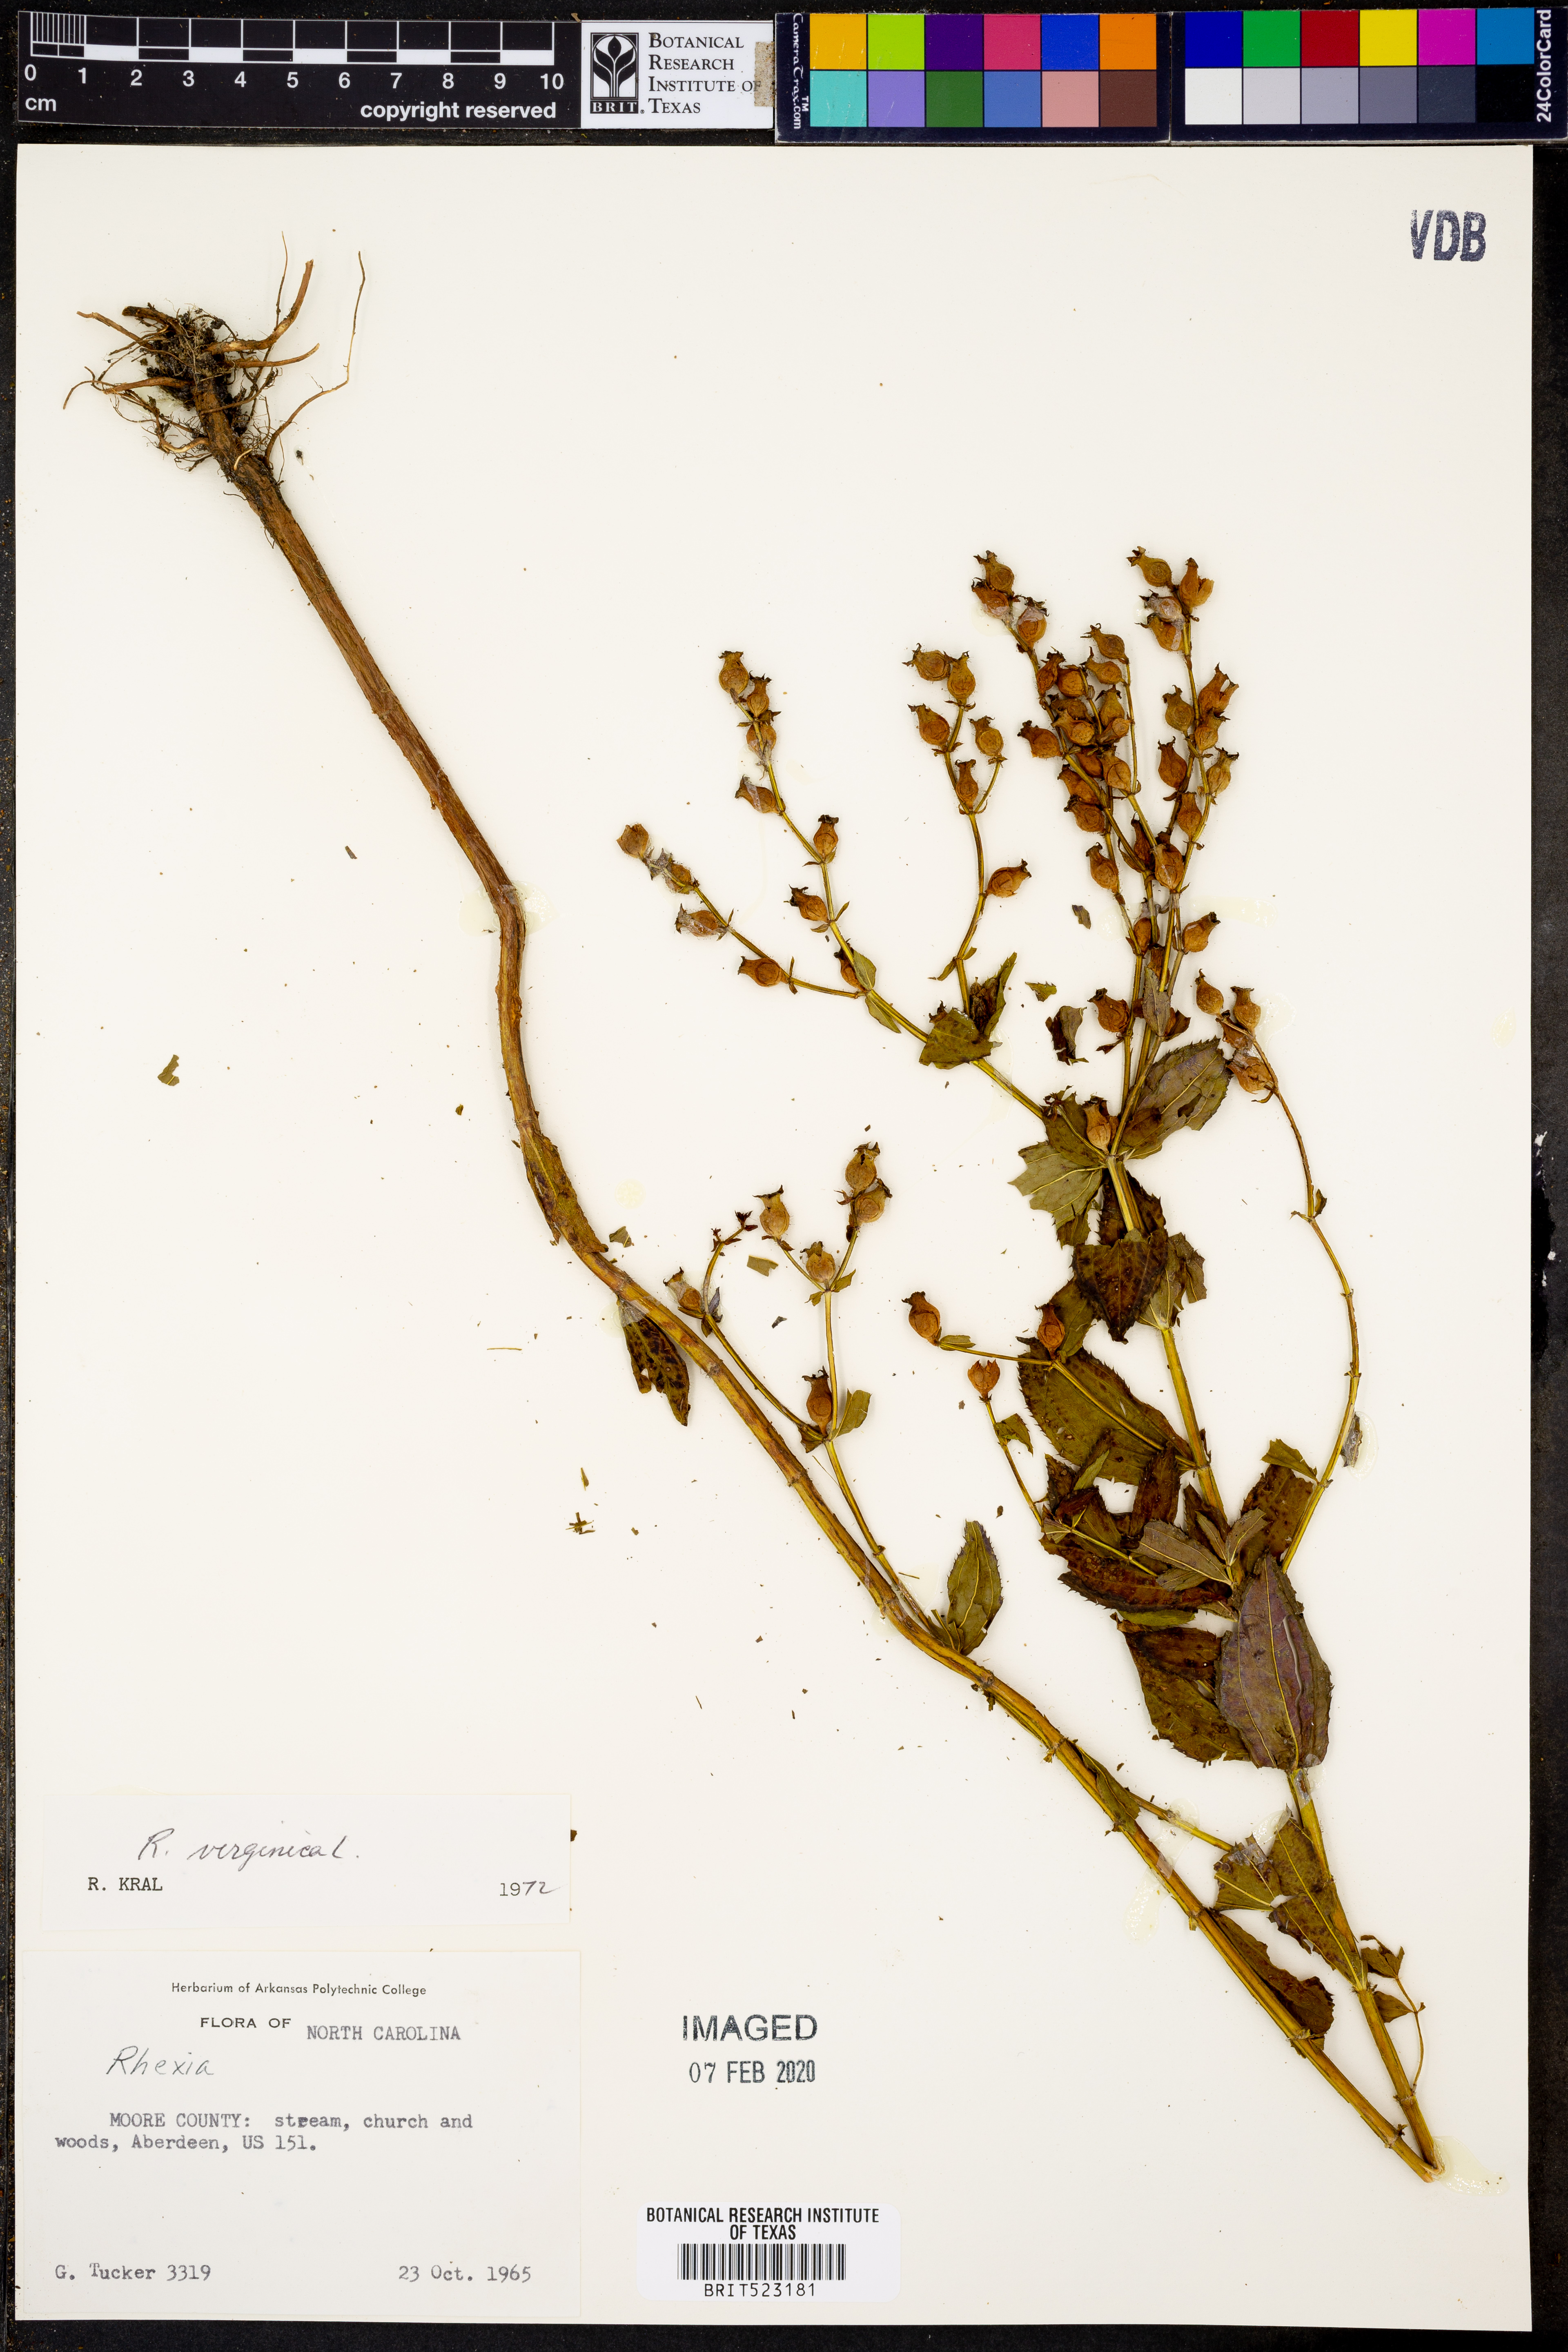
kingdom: Plantae
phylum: Tracheophyta
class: Magnoliopsida
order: Myrtales
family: Melastomataceae
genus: Rhexia
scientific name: Rhexia virginica
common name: Common meadow beauty
